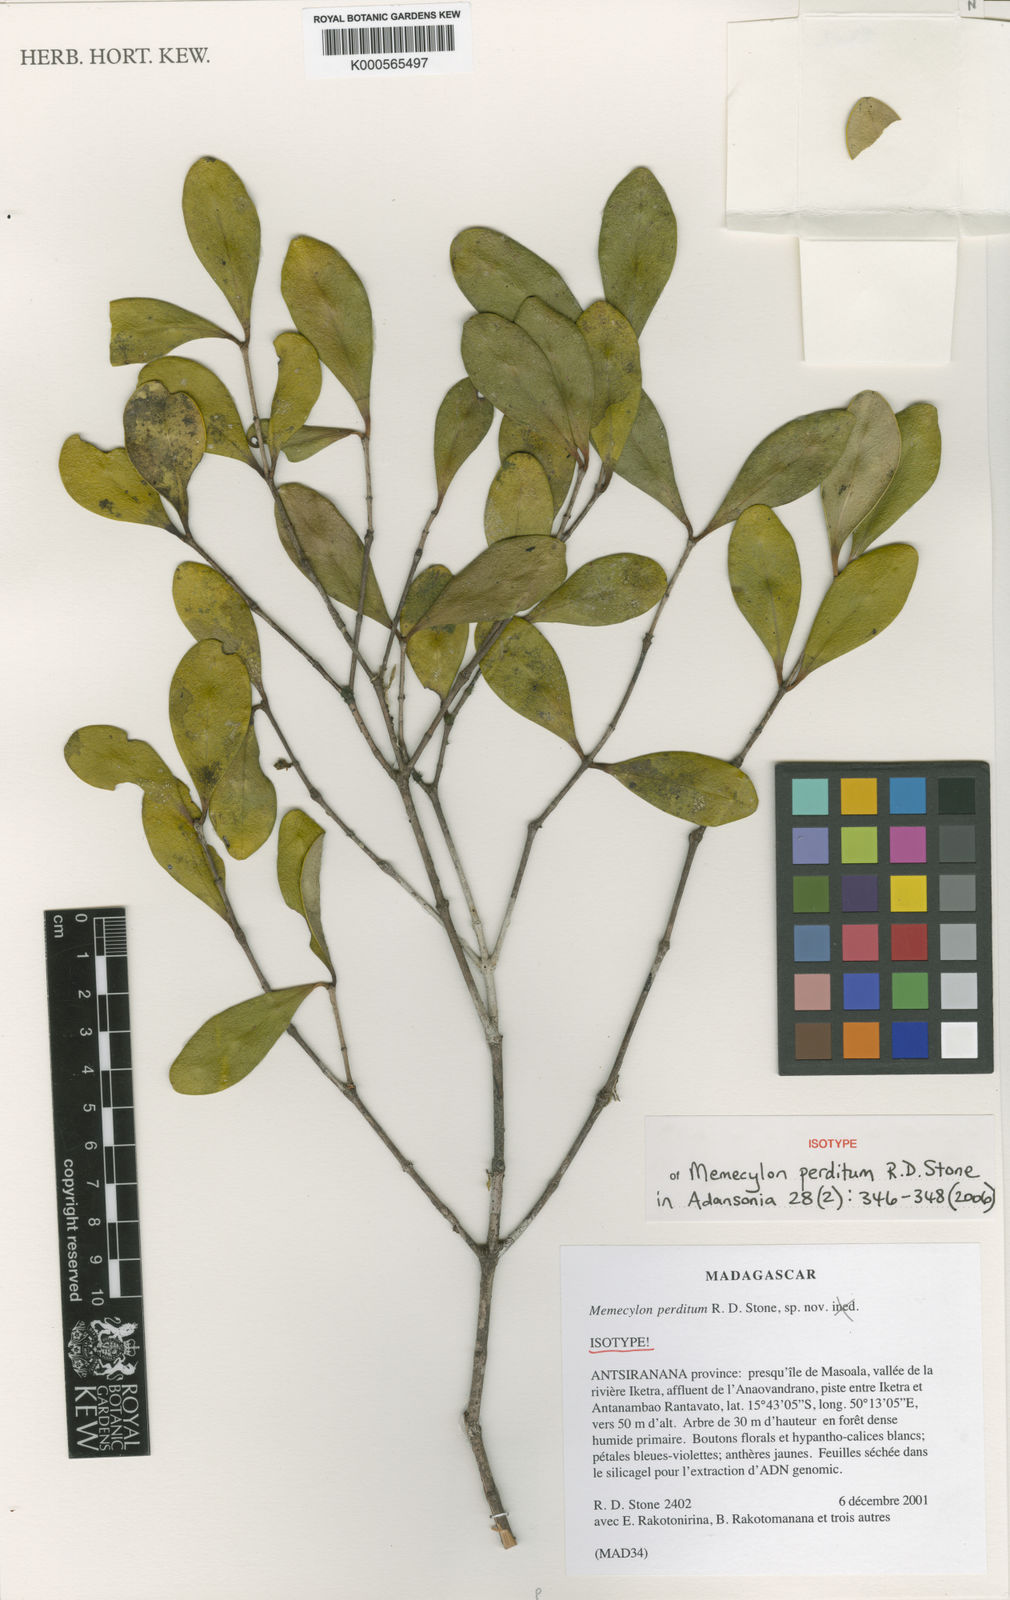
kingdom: Plantae
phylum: Tracheophyta
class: Magnoliopsida
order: Myrtales
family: Melastomataceae
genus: Memecylon
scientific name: Memecylon perditum
